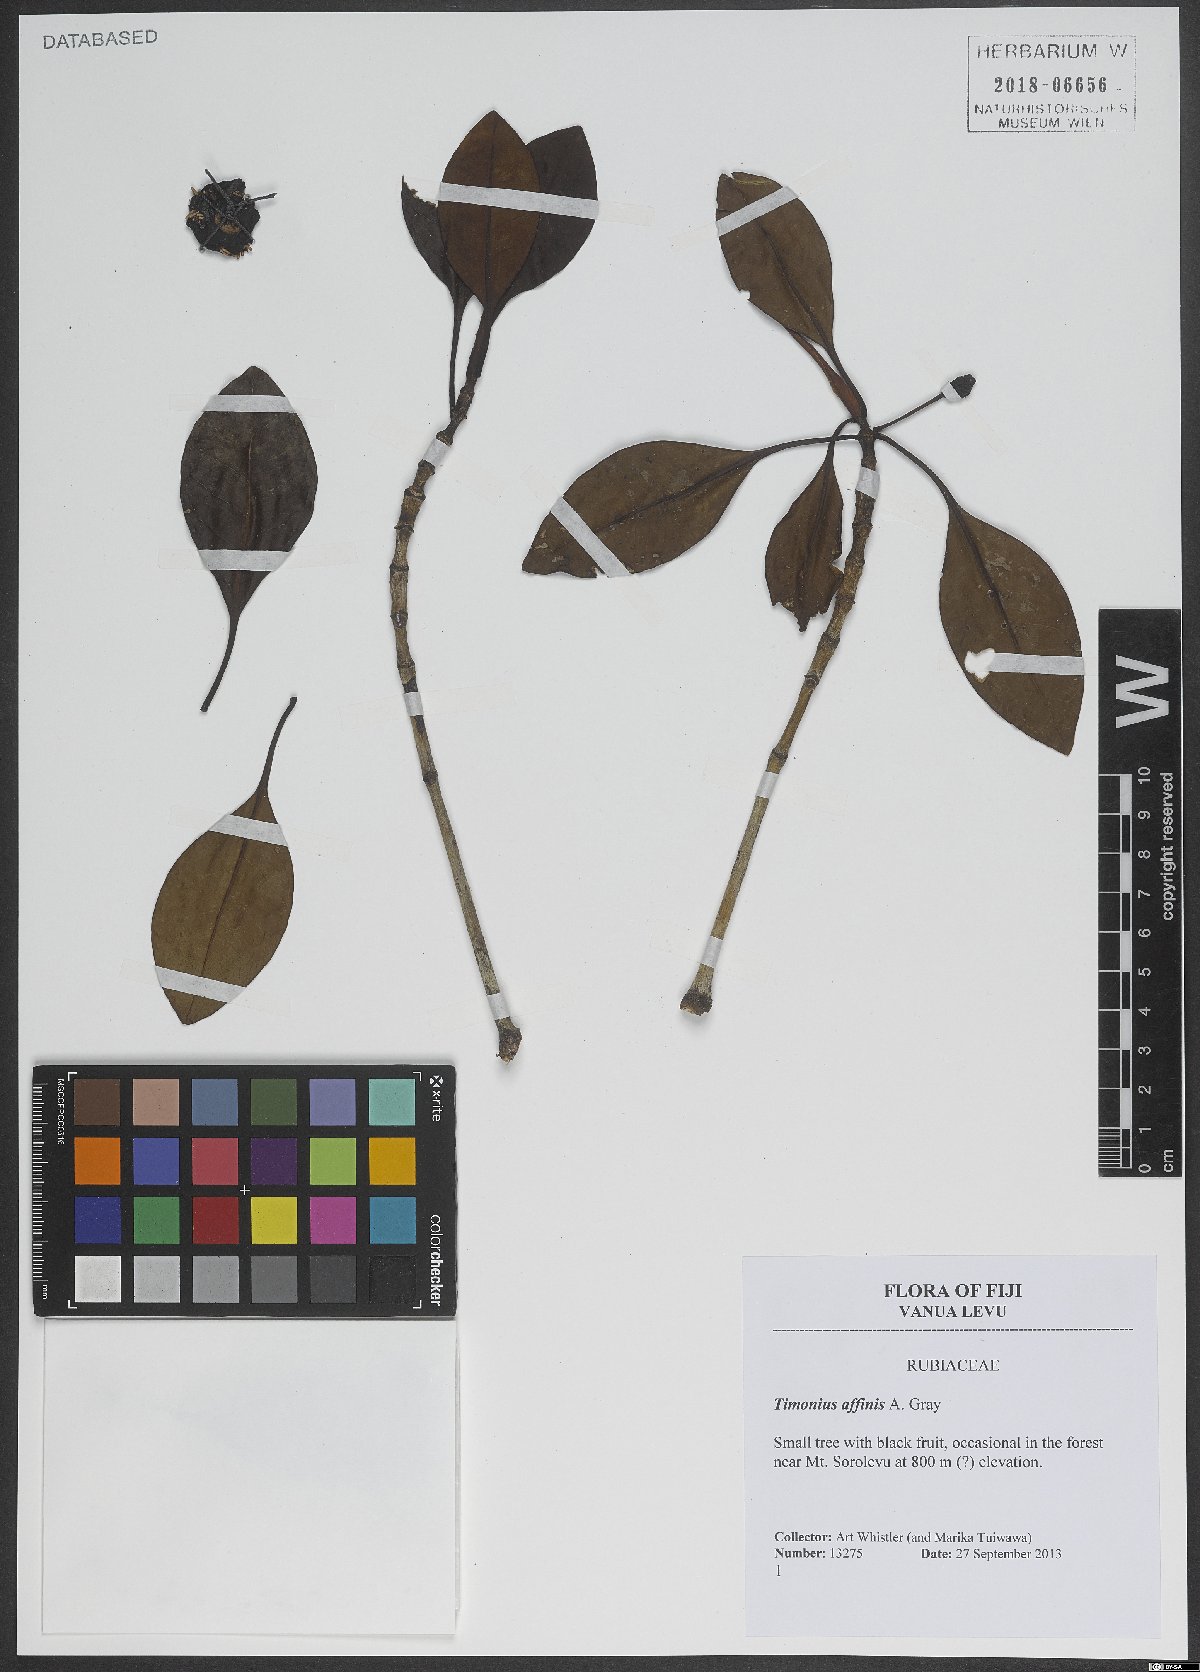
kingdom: Plantae
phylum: Tracheophyta
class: Magnoliopsida
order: Gentianales
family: Rubiaceae
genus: Timonius
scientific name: Timonius affinis
